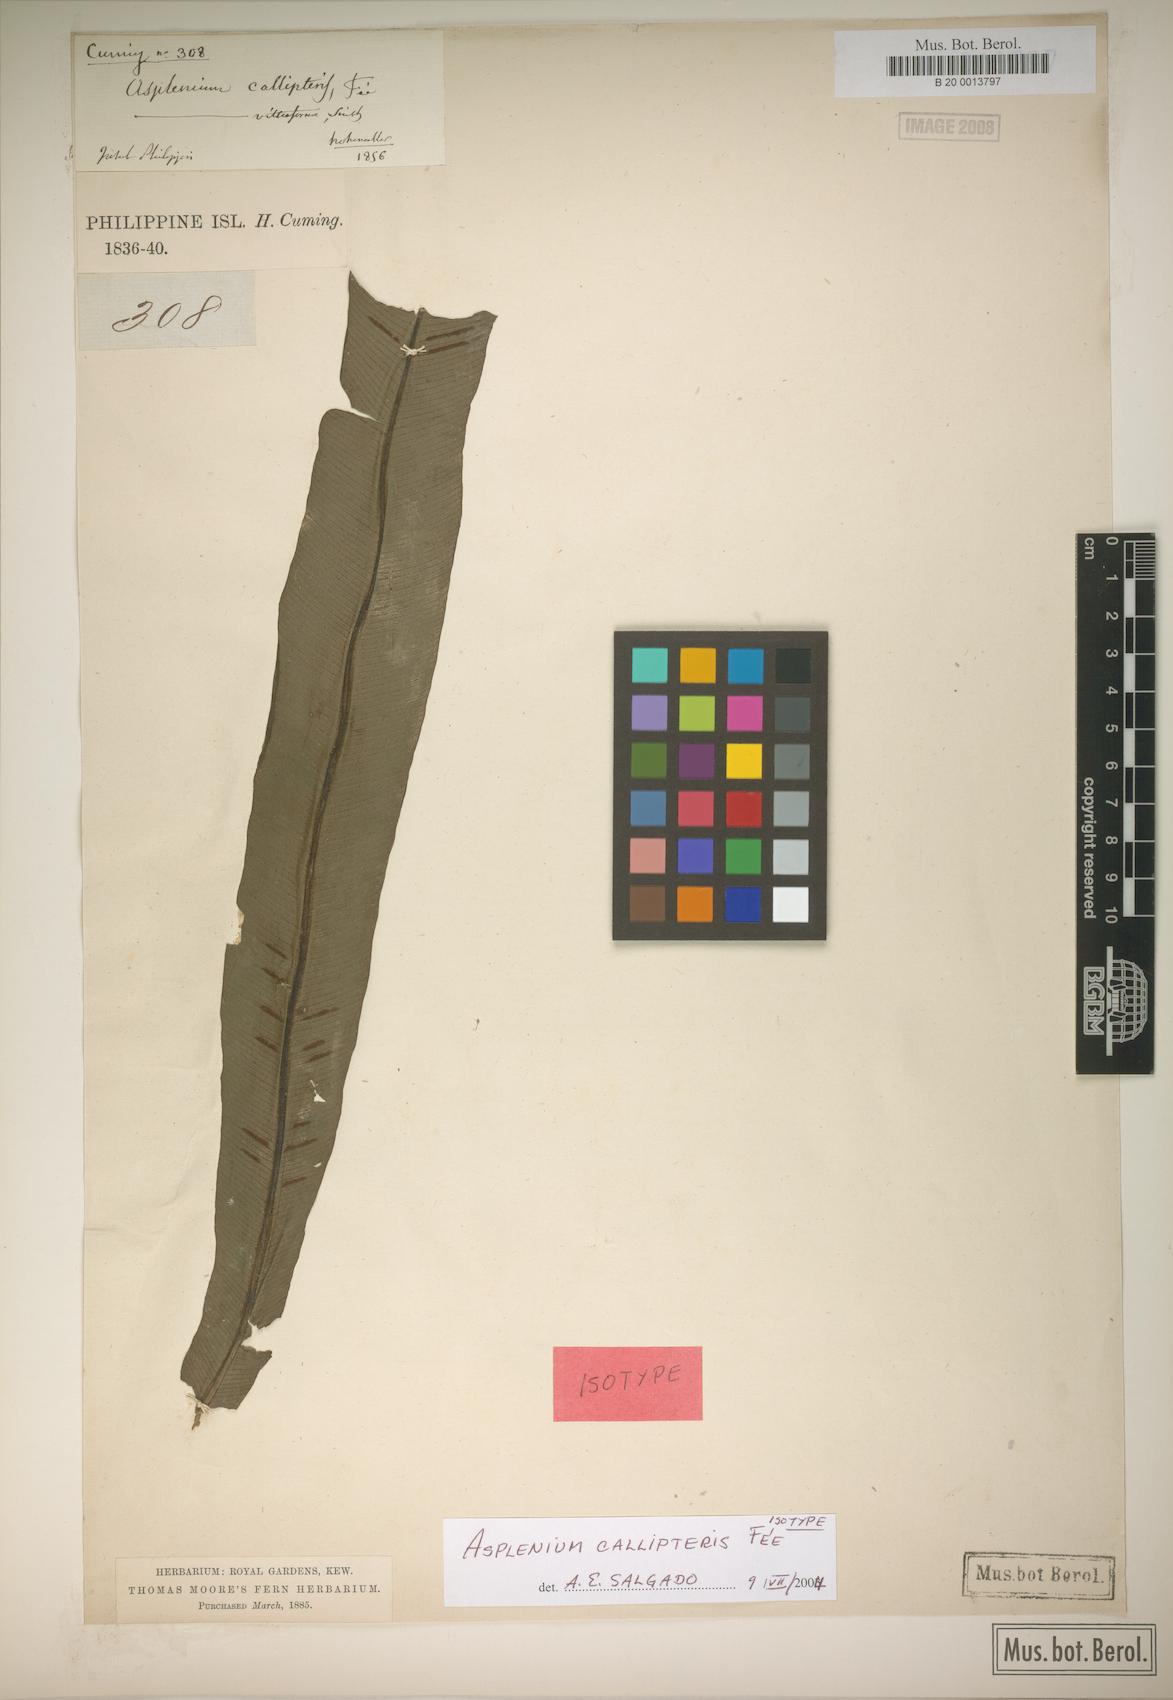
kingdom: Plantae
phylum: Tracheophyta
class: Polypodiopsida
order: Polypodiales
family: Aspleniaceae
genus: Asplenium
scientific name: Asplenium callipteris
